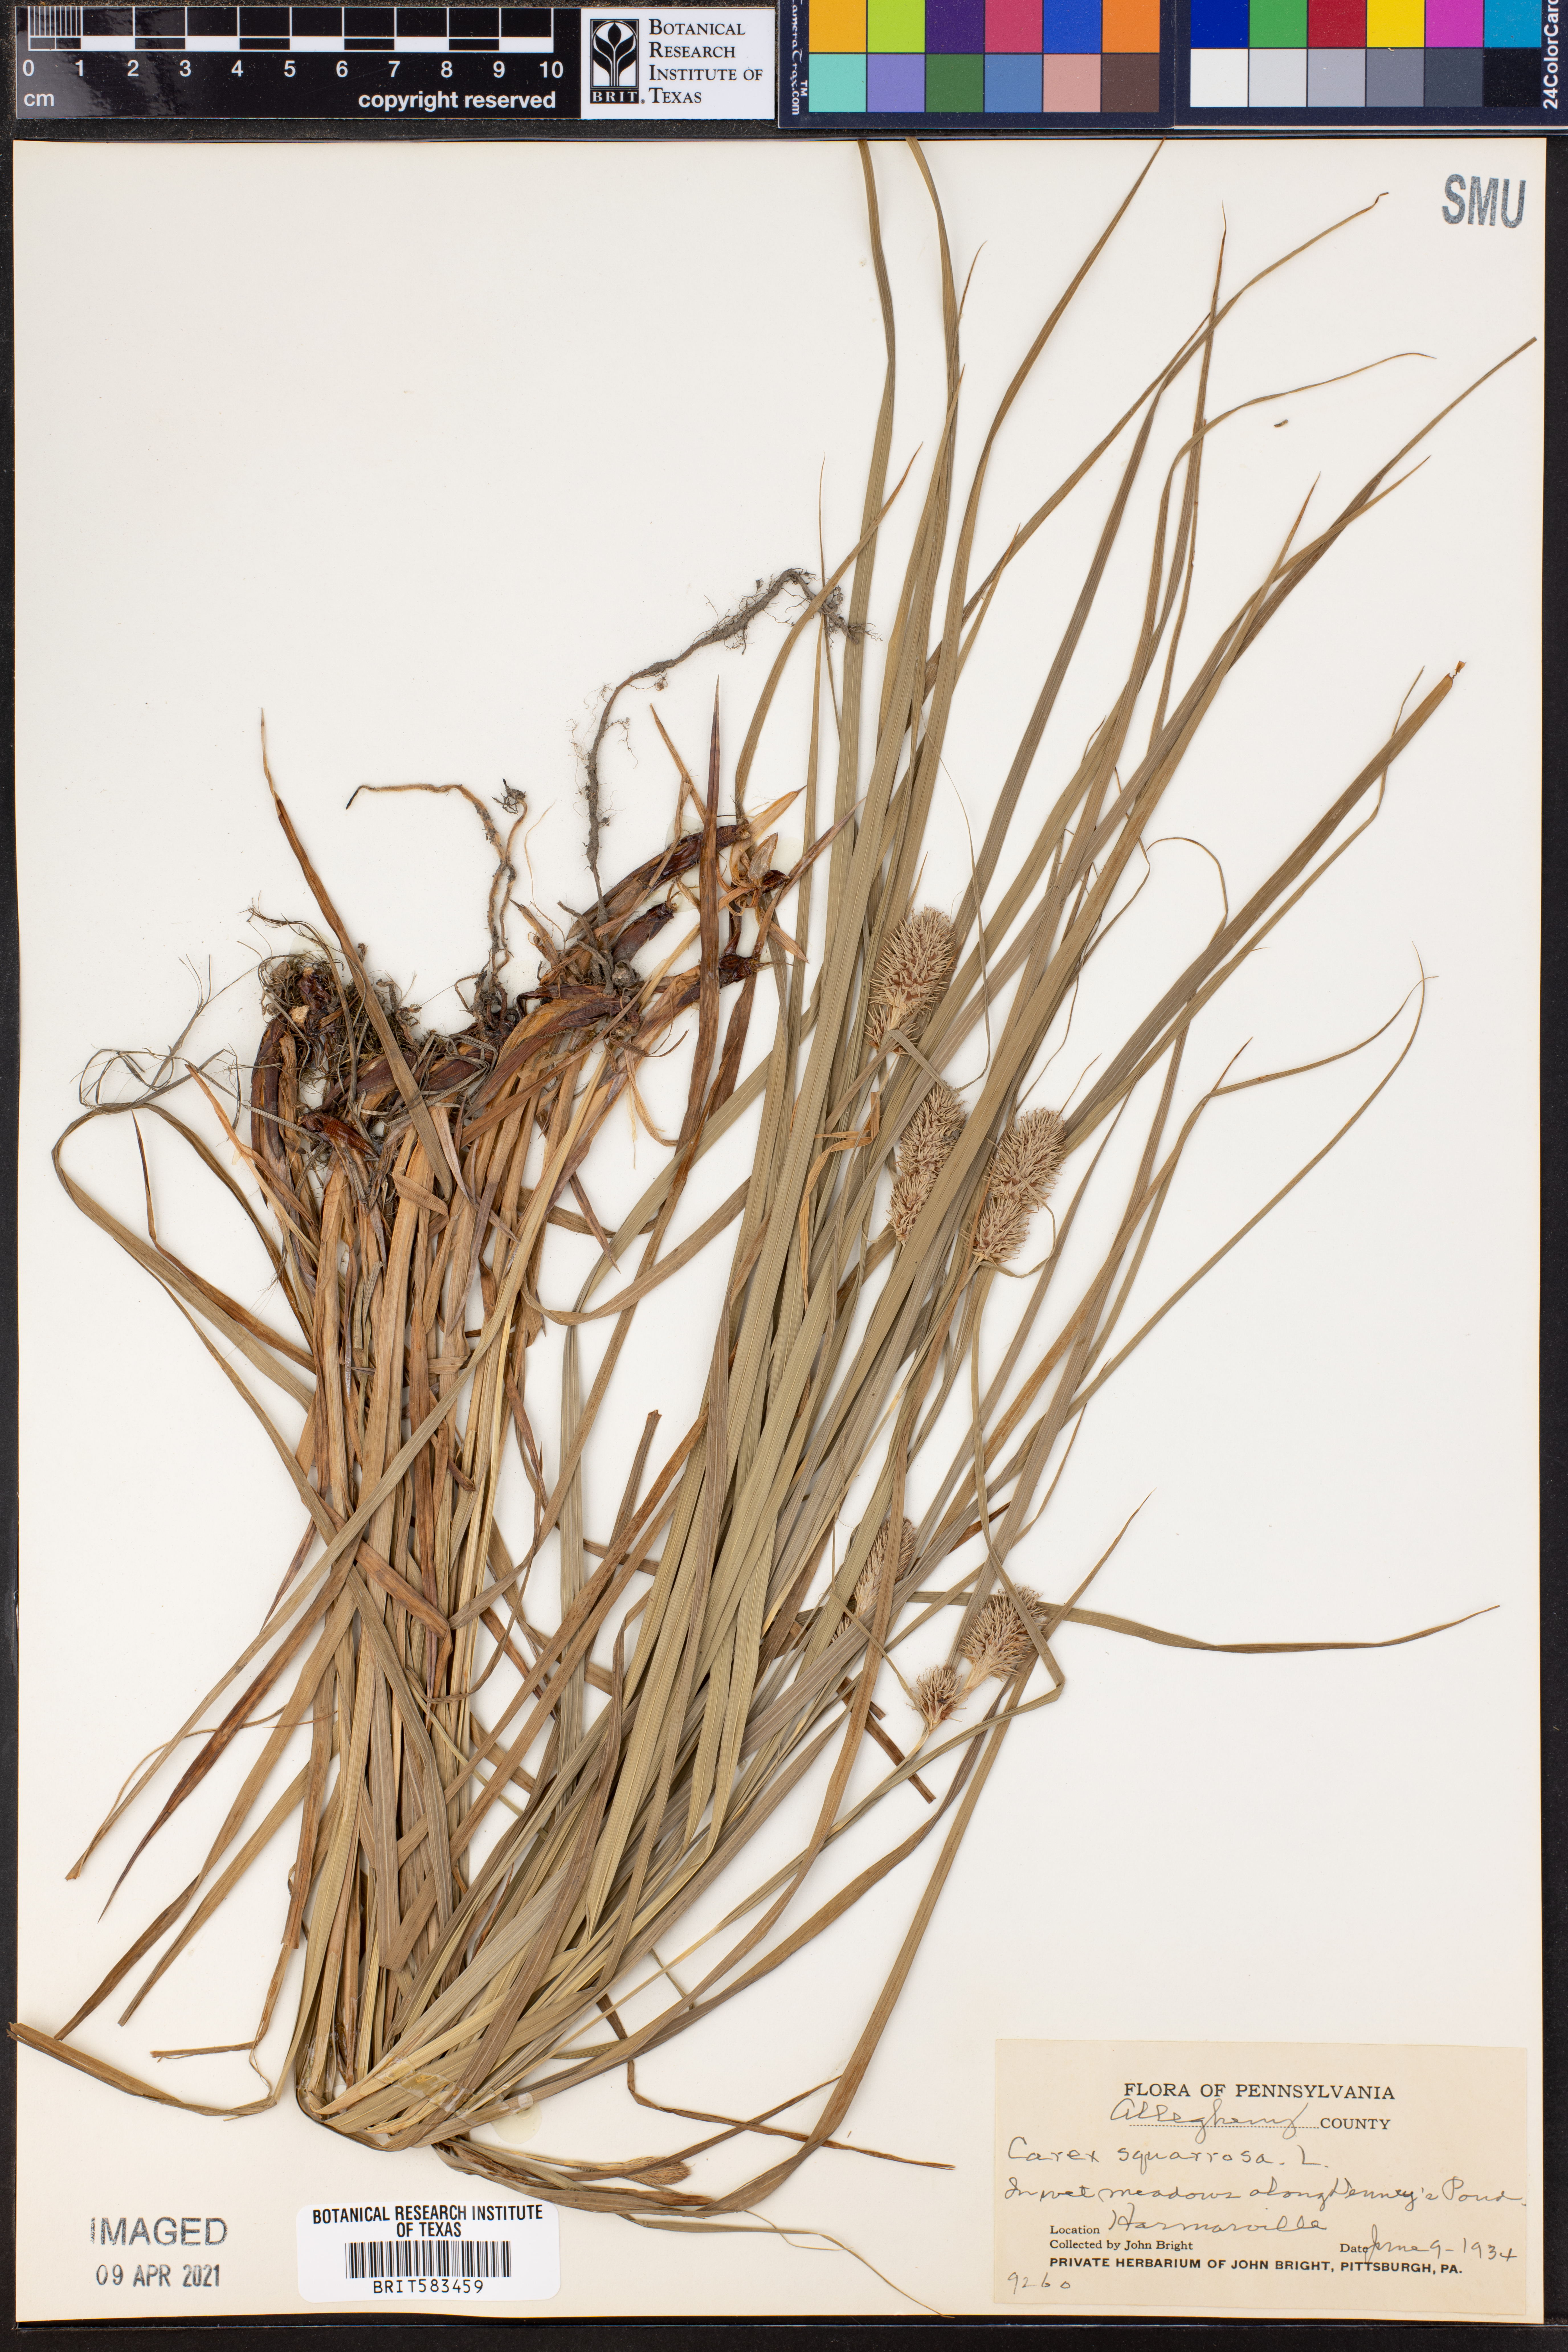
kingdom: Plantae
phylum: Tracheophyta
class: Liliopsida
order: Poales
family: Cyperaceae
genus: Carex
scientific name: Carex squarrosa
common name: Narrow-leaved cattail sedge
